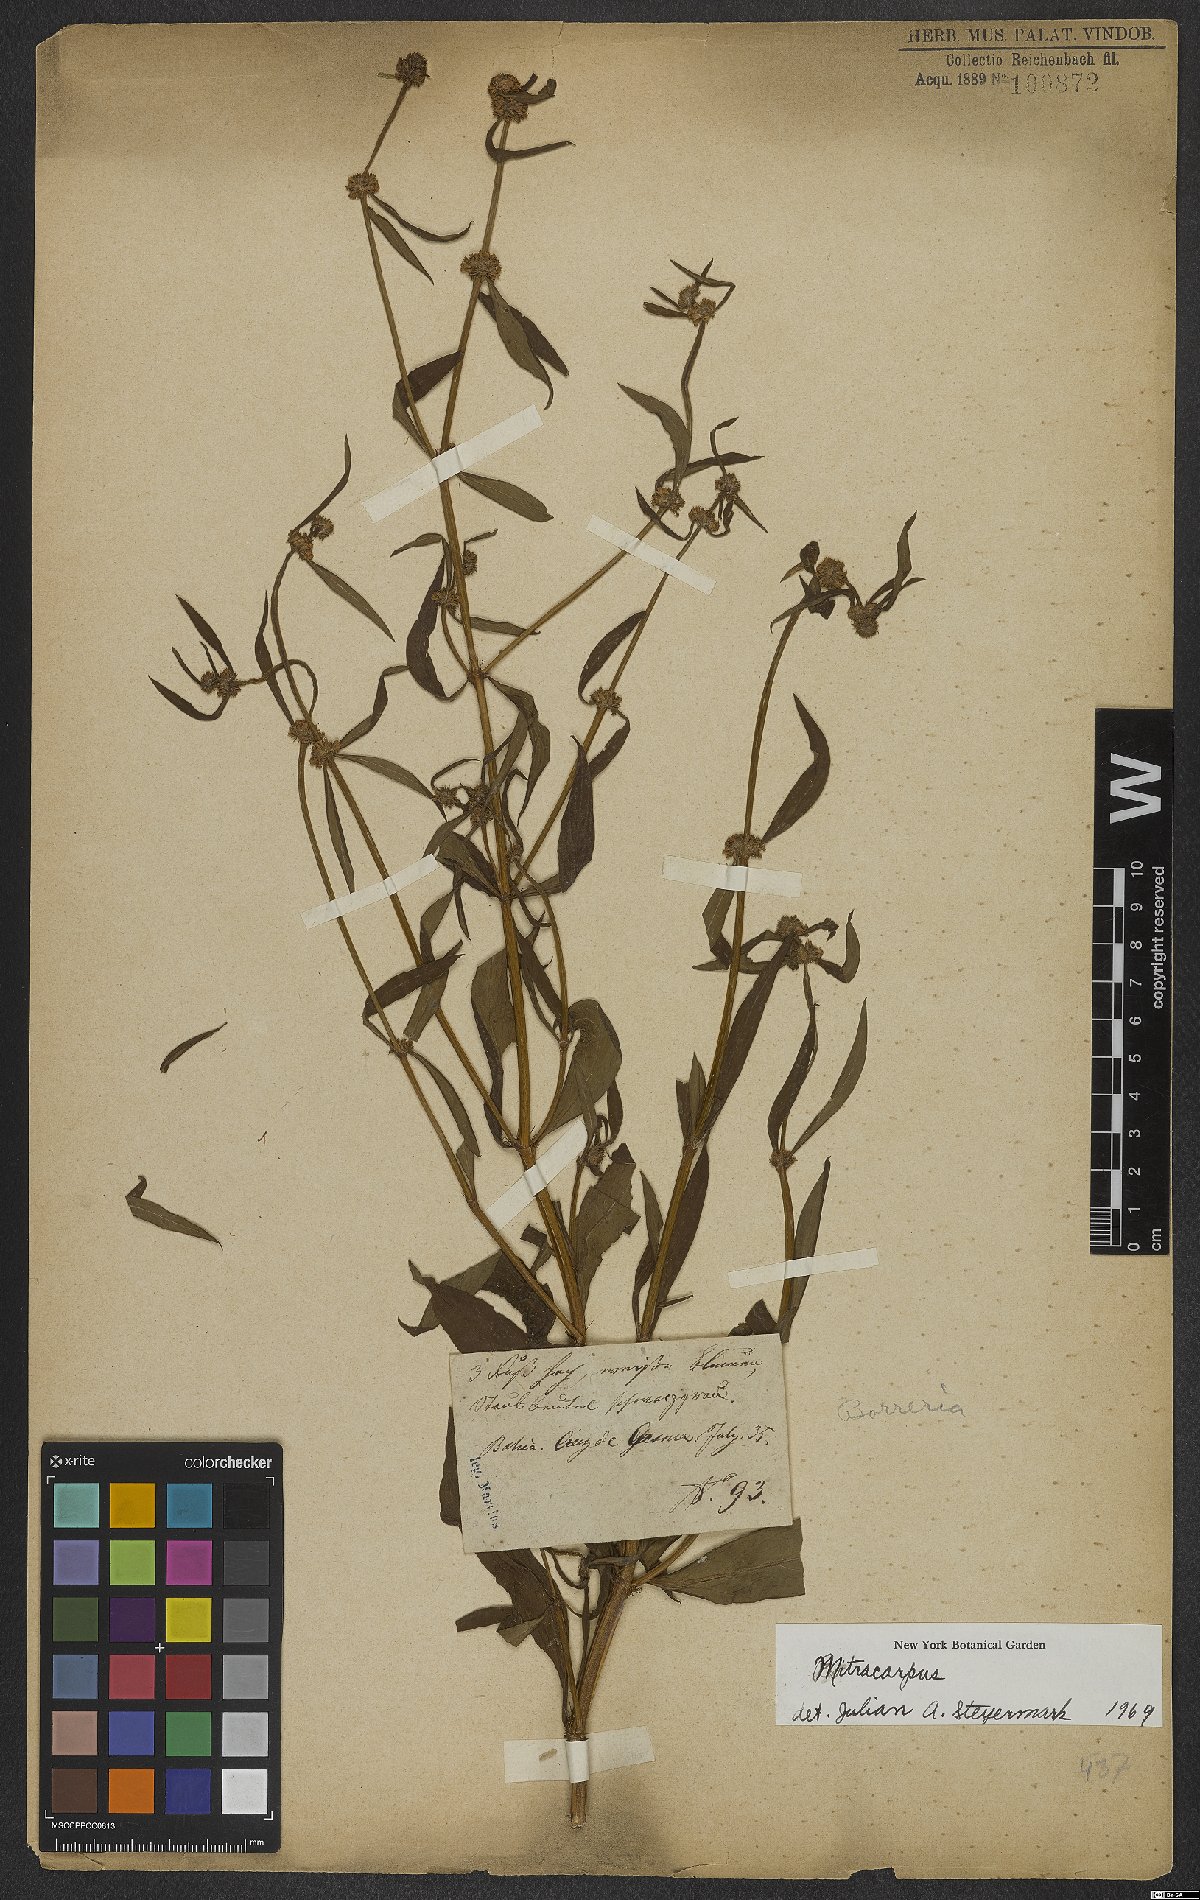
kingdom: Plantae
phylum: Tracheophyta
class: Magnoliopsida
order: Gentianales
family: Rubiaceae
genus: Mitracarpus
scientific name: Mitracarpus
